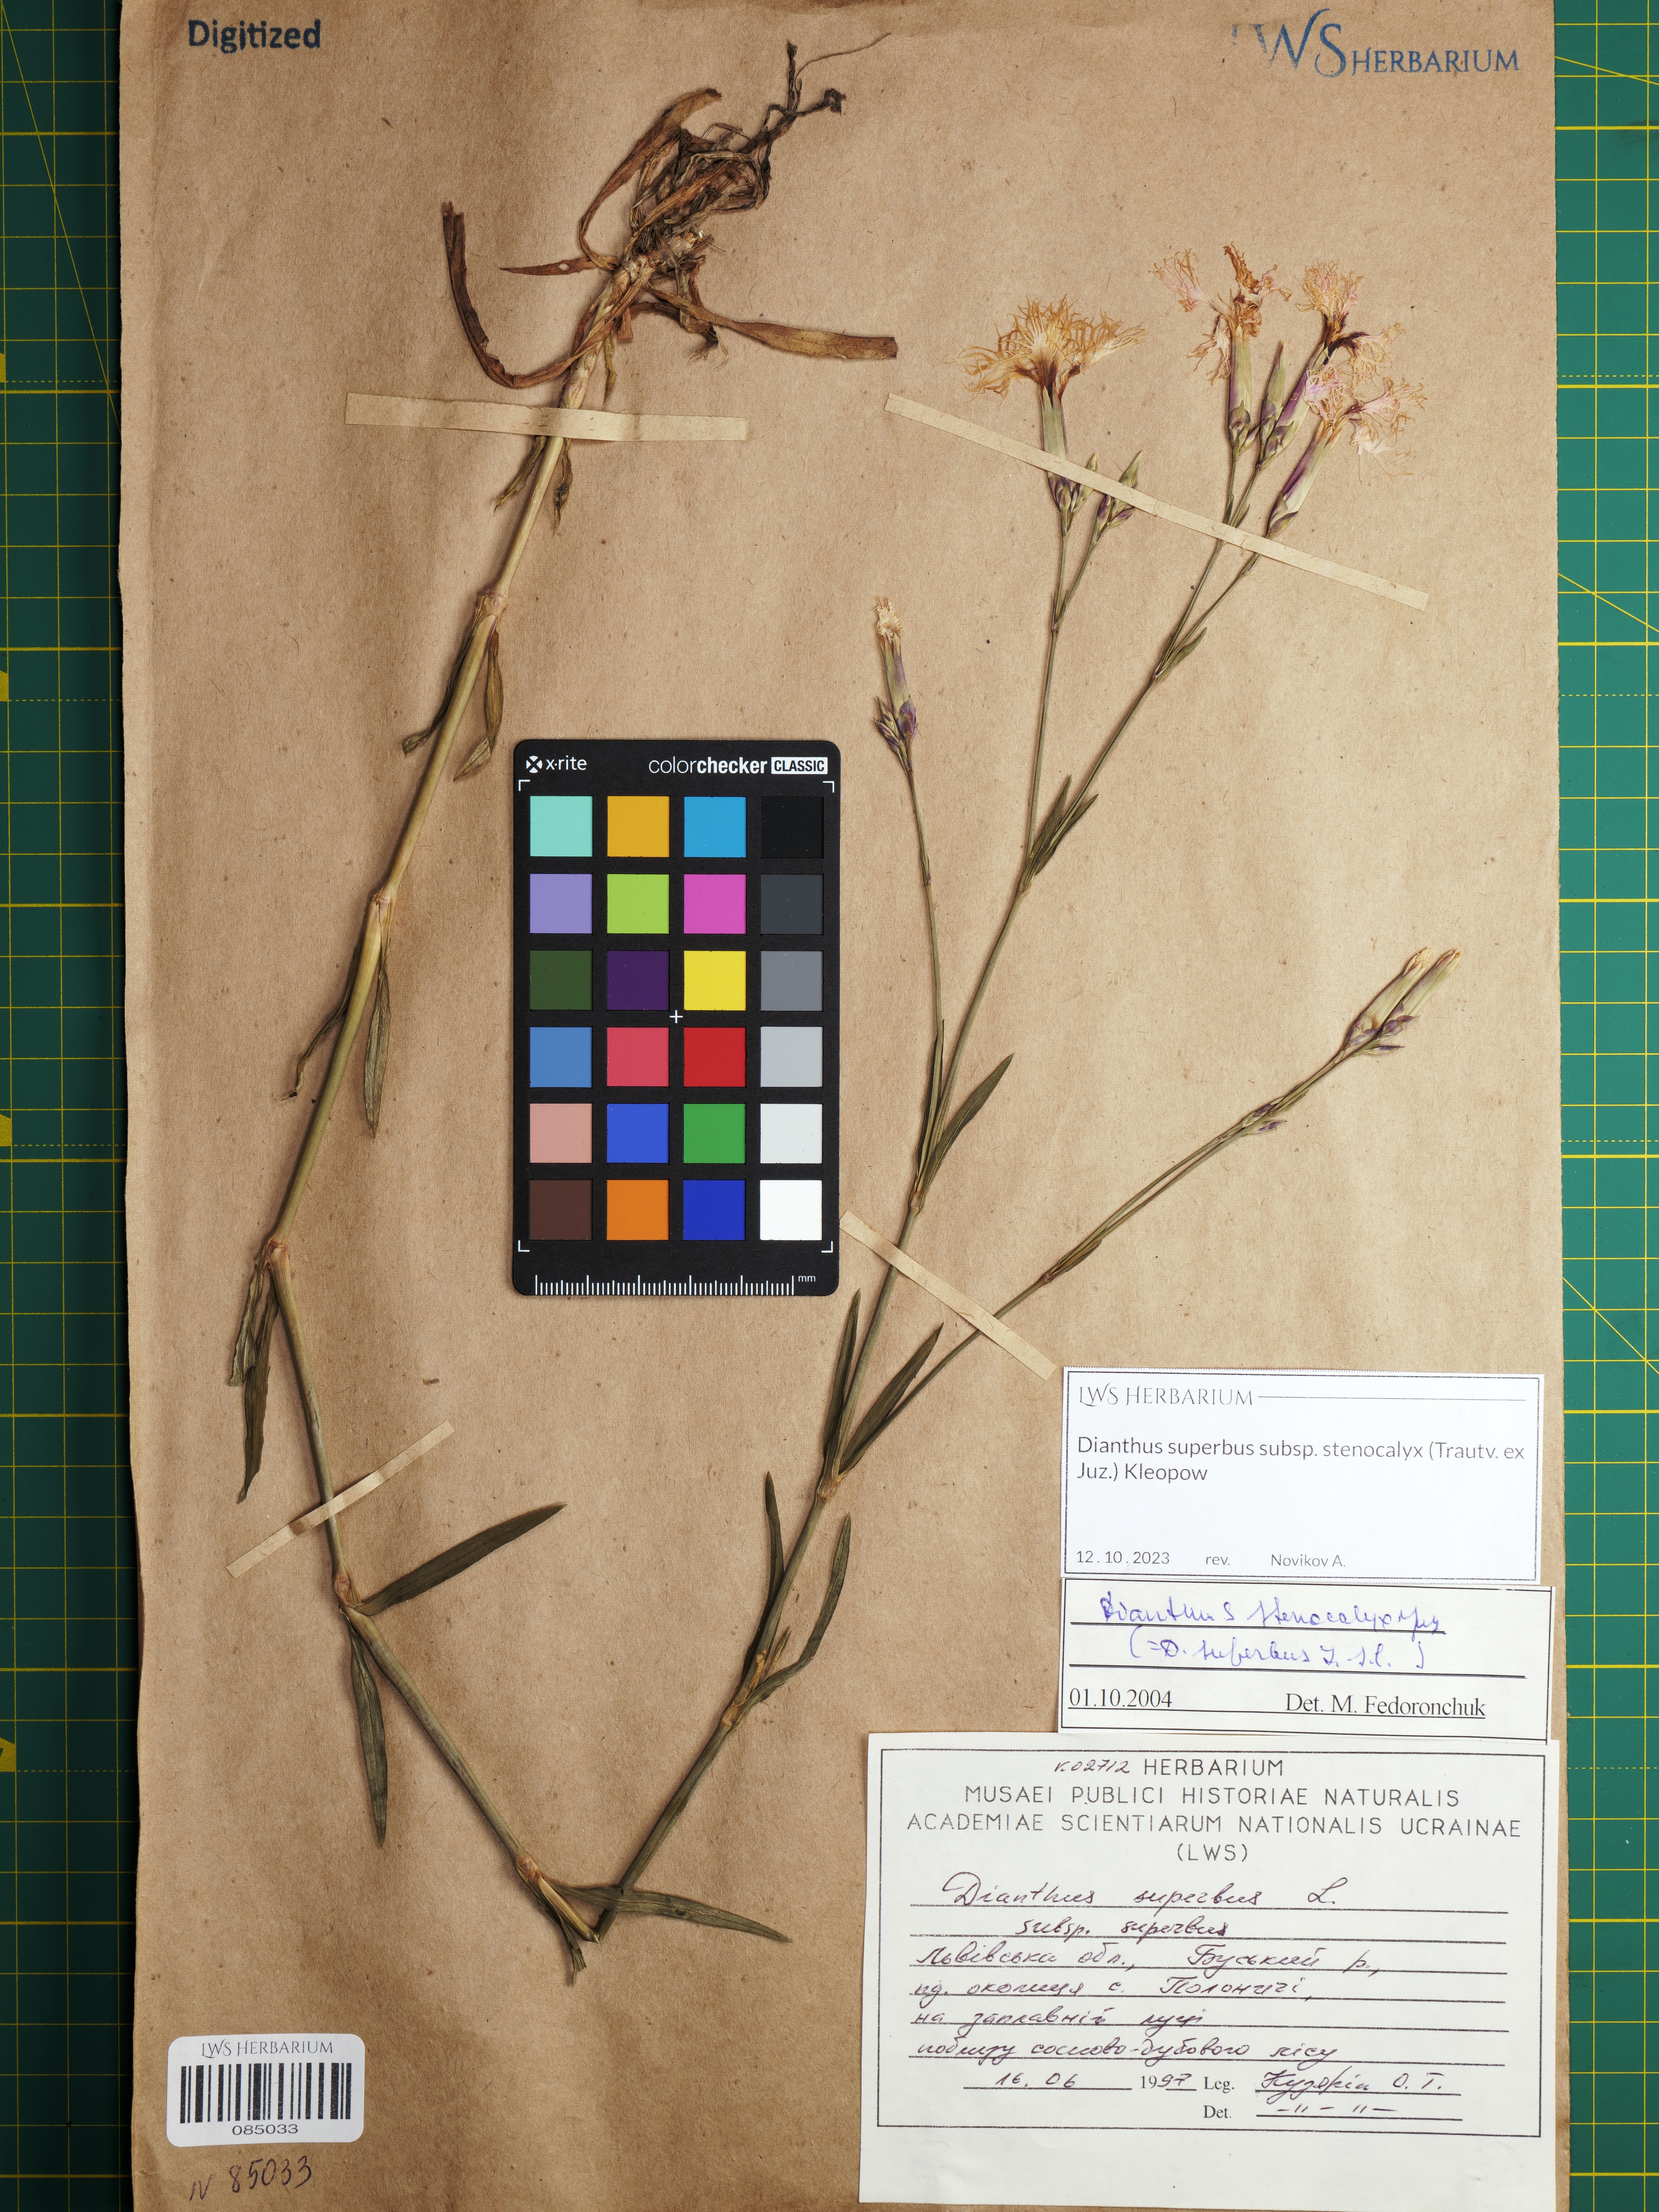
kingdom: Plantae
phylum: Tracheophyta
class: Magnoliopsida
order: Caryophyllales
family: Caryophyllaceae
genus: Dianthus
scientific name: Dianthus superbus
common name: Fringed pink
